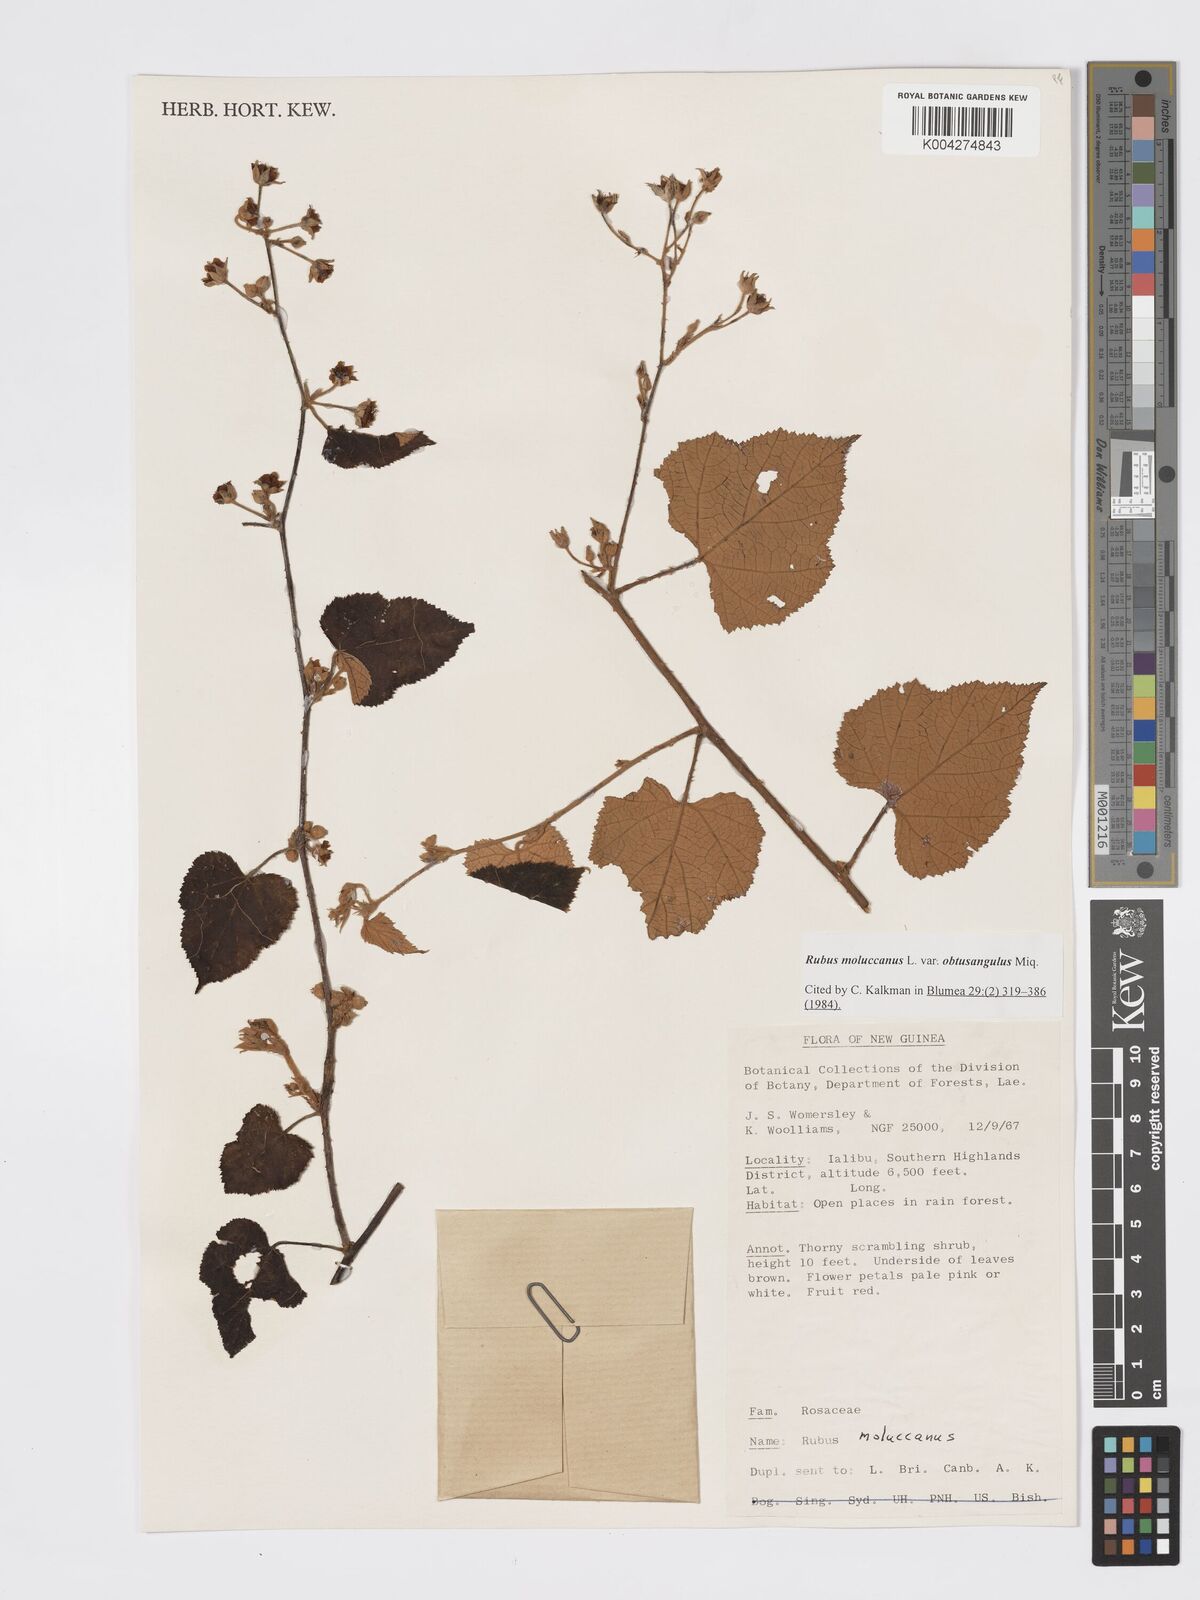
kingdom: Plantae
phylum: Tracheophyta
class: Magnoliopsida
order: Rosales
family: Rosaceae
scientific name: Rosaceae
